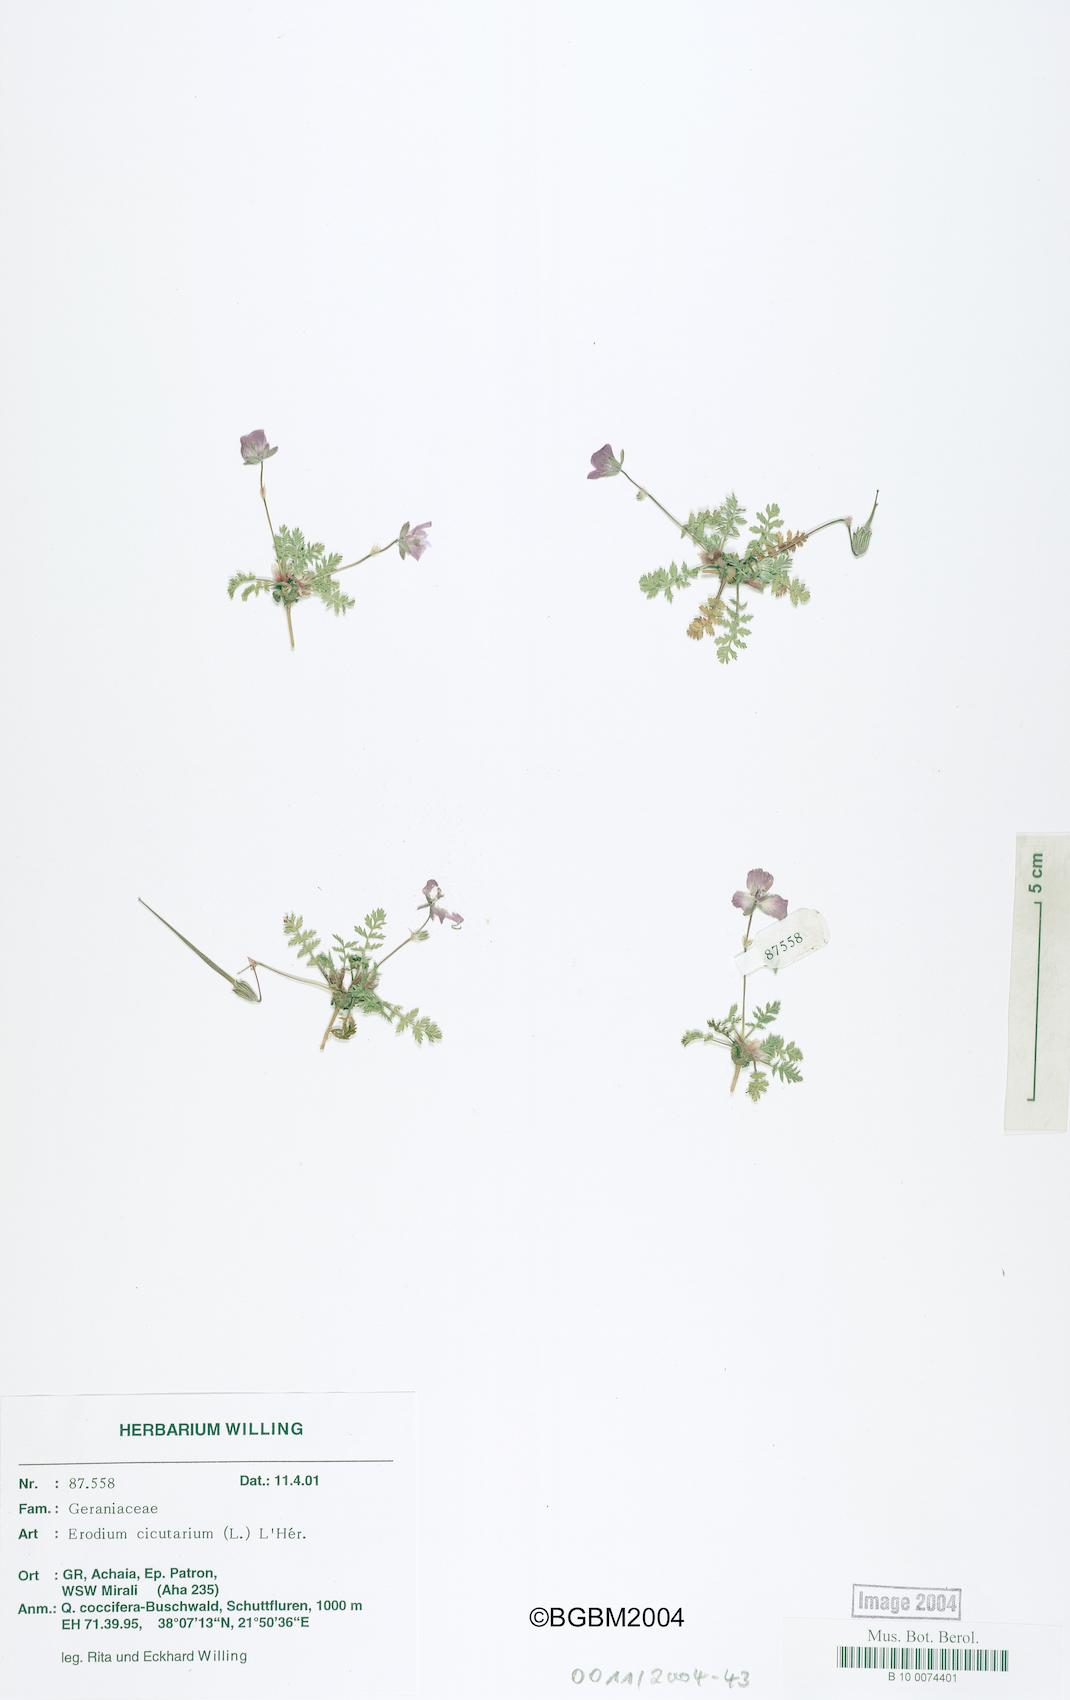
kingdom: Plantae
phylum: Tracheophyta
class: Magnoliopsida
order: Geraniales
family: Geraniaceae
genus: Erodium
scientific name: Erodium cicutarium
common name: Common stork's-bill
